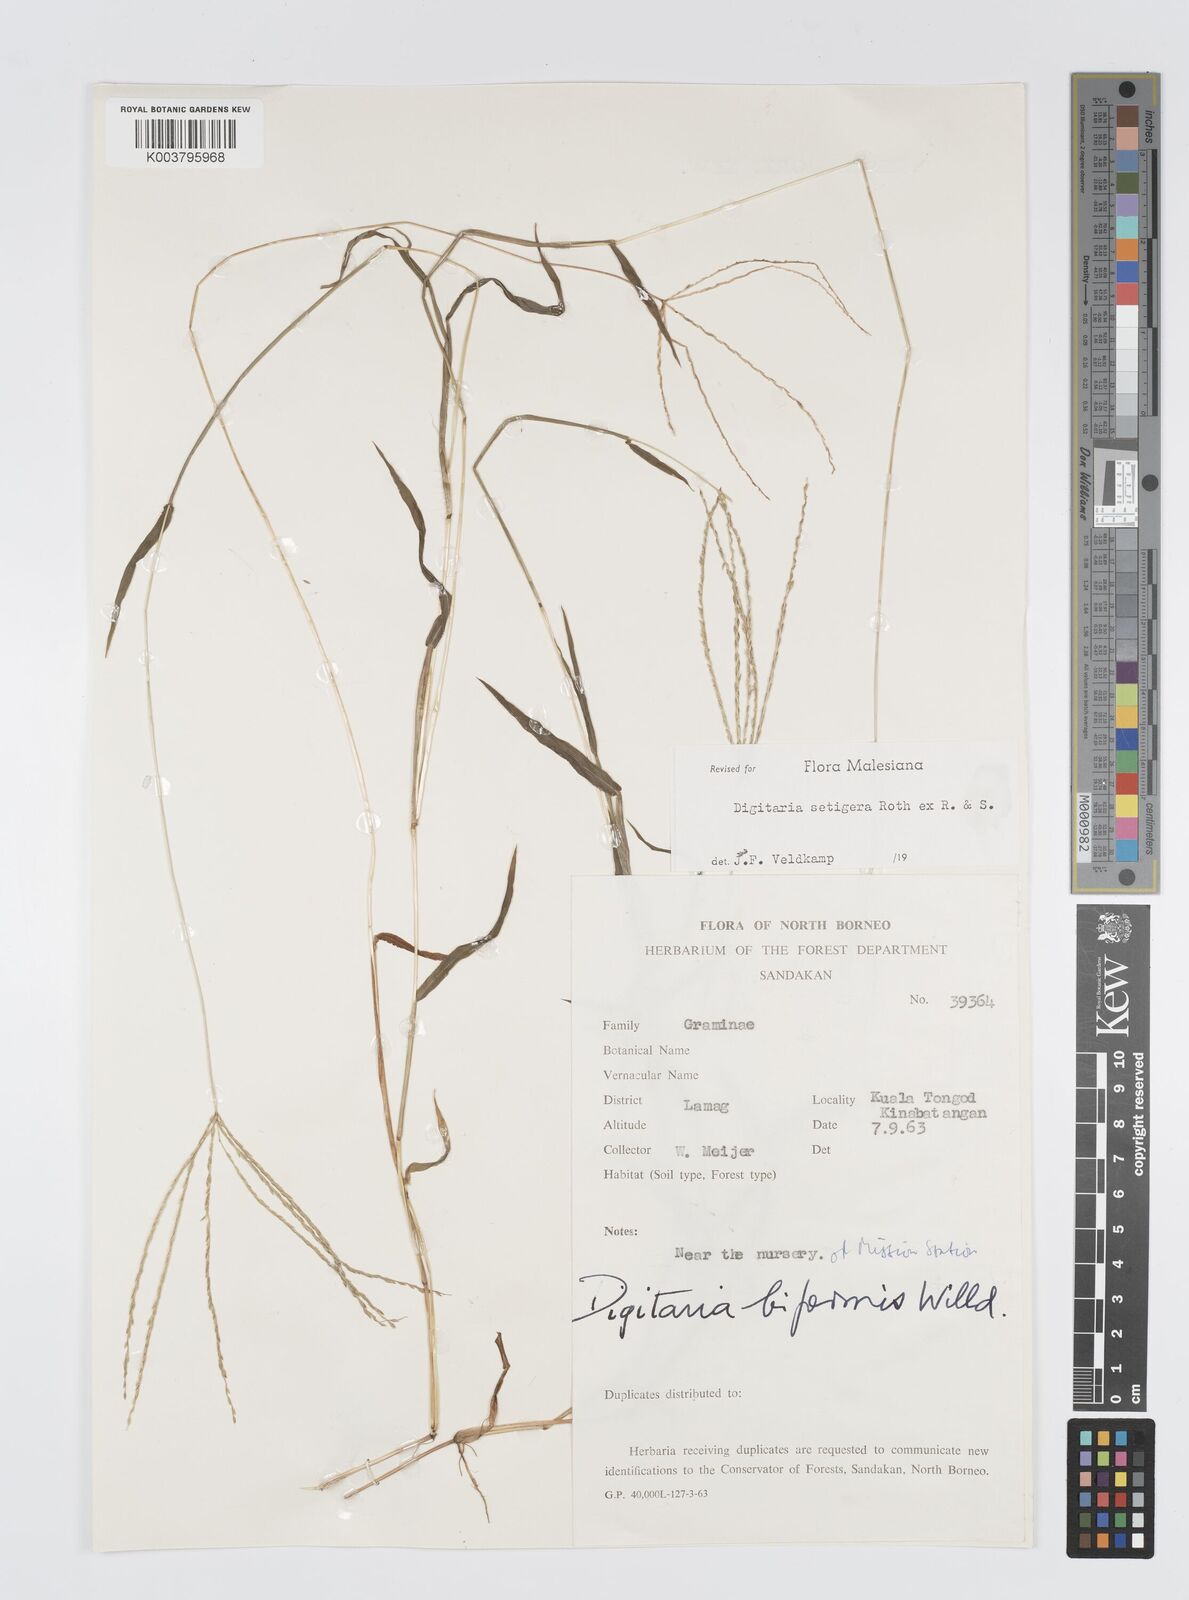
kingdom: Plantae
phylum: Tracheophyta
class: Liliopsida
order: Poales
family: Poaceae
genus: Digitaria
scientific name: Digitaria setigera
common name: East indian crabgrass
